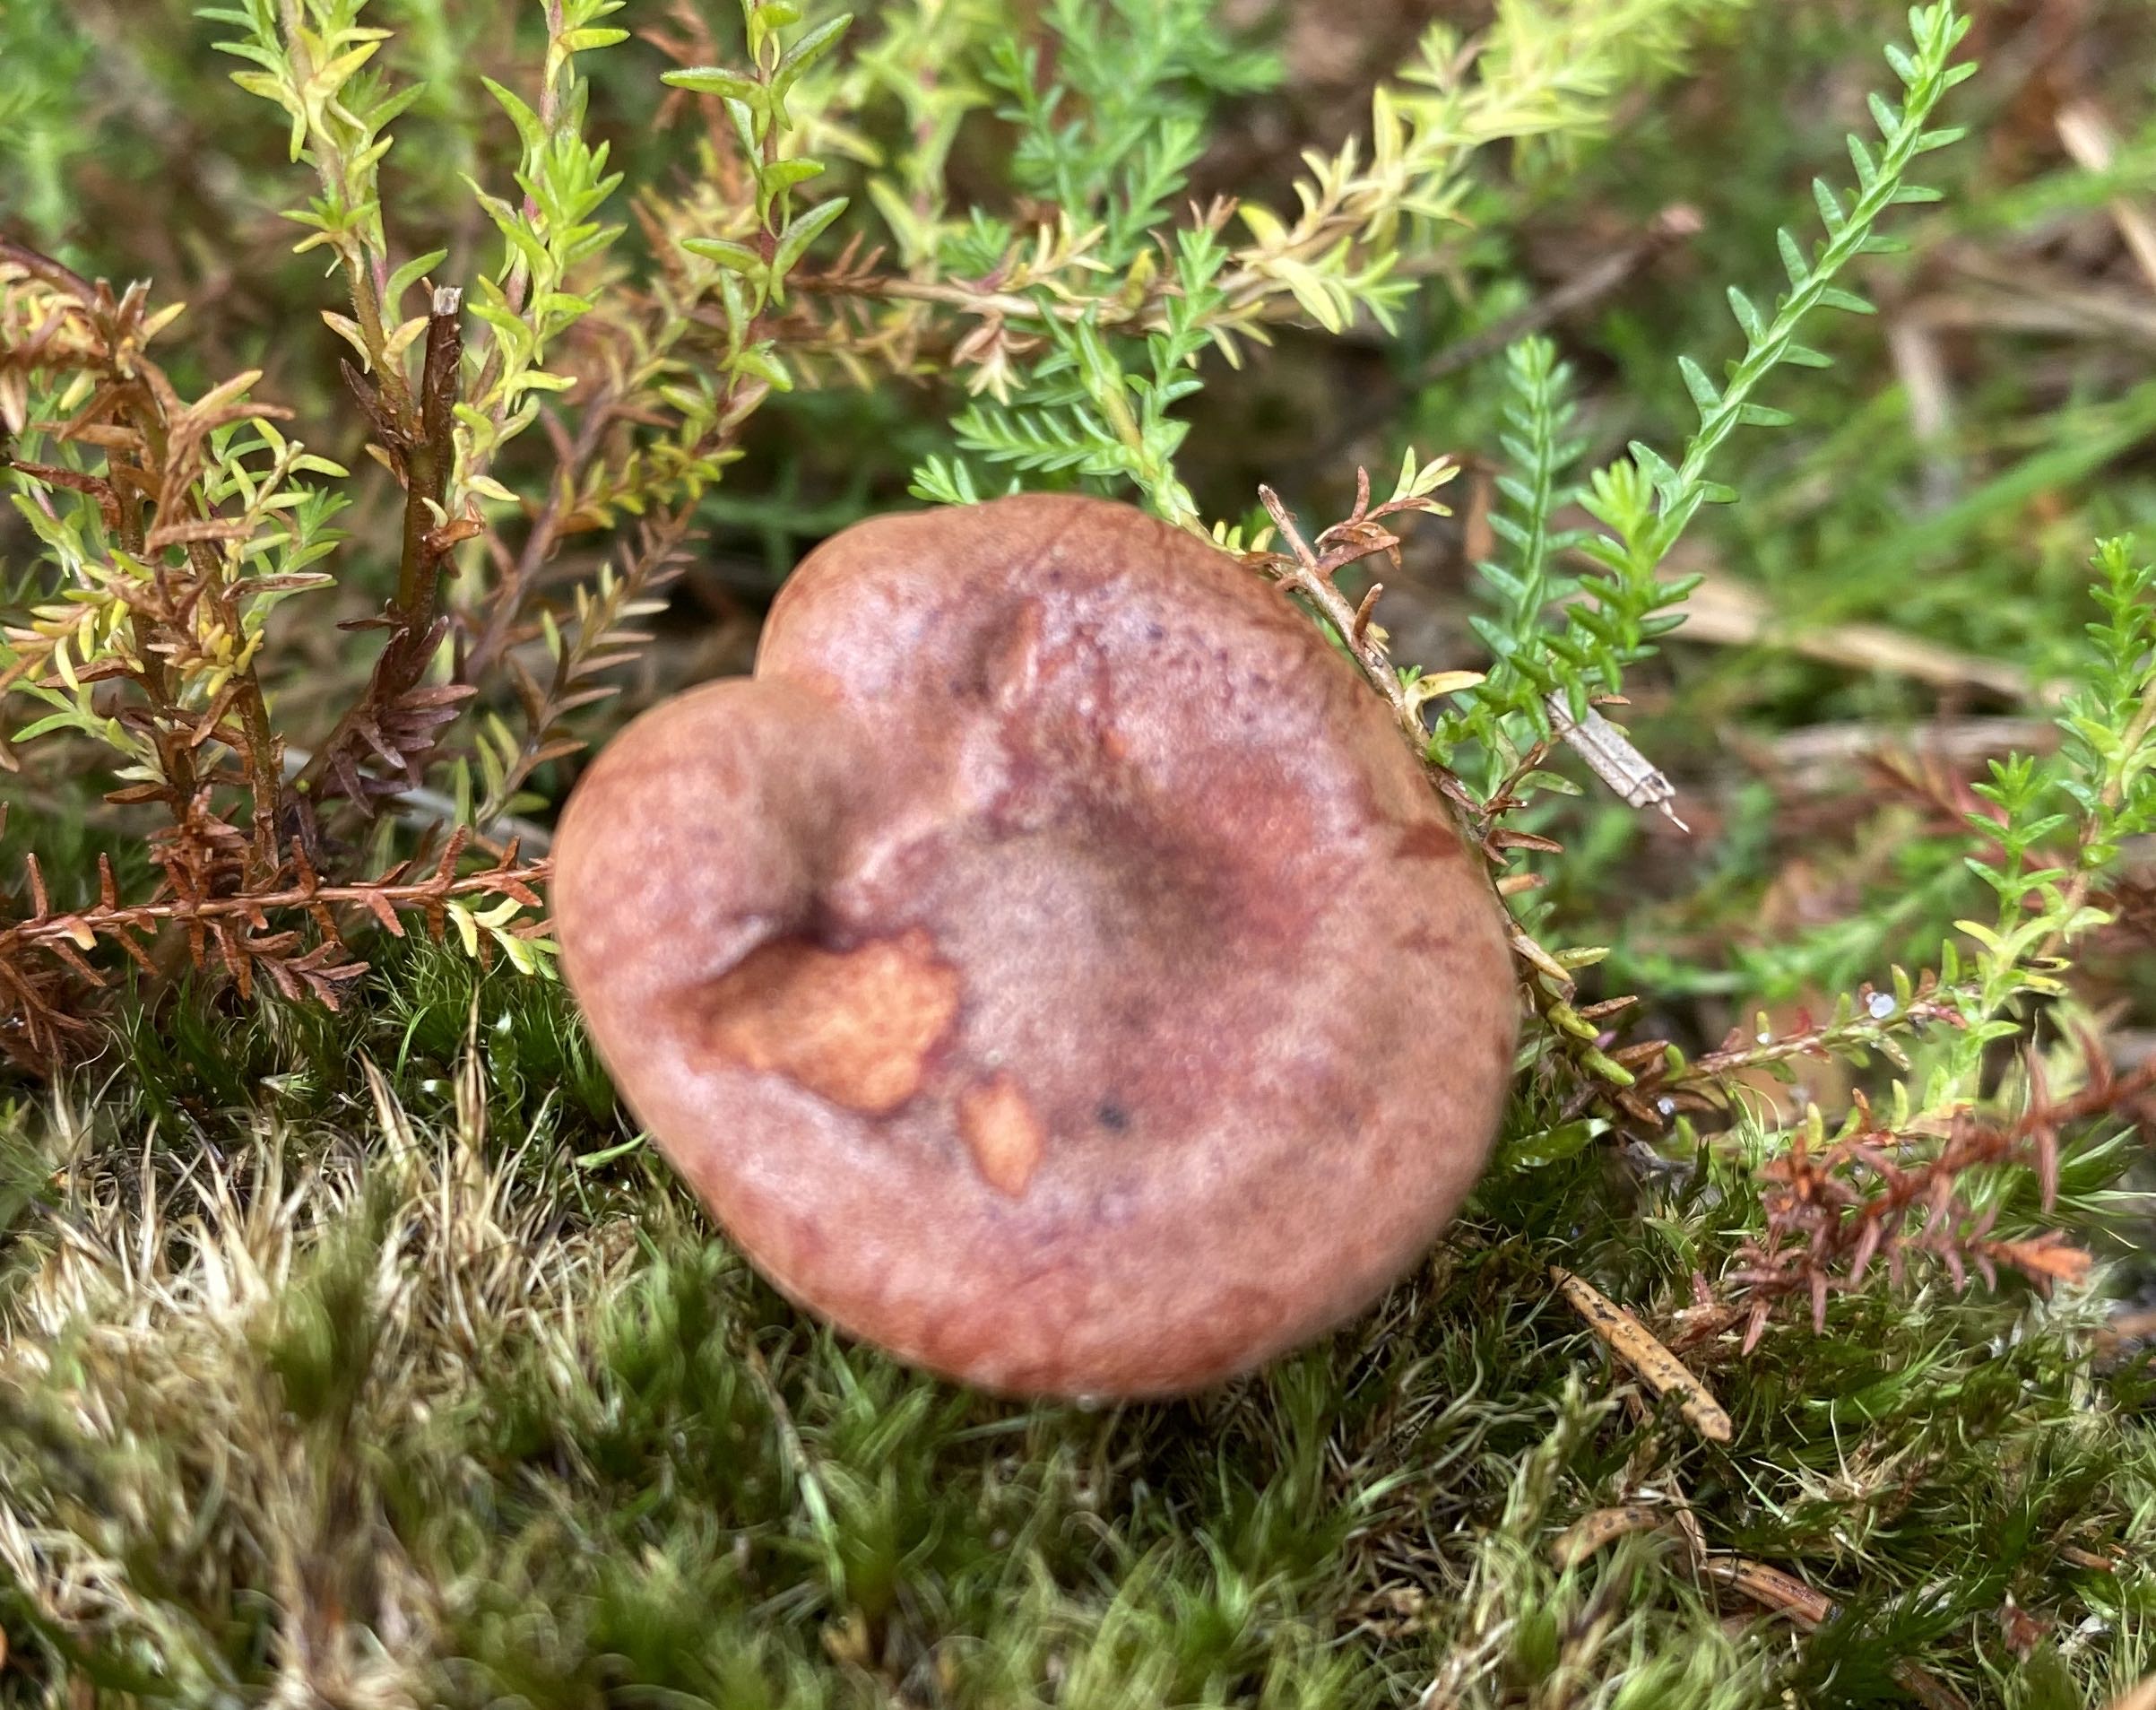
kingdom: Fungi
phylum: Basidiomycota
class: Agaricomycetes
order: Russulales
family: Russulaceae
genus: Lactarius
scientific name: Lactarius rufus
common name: rødbrun mælkehat
